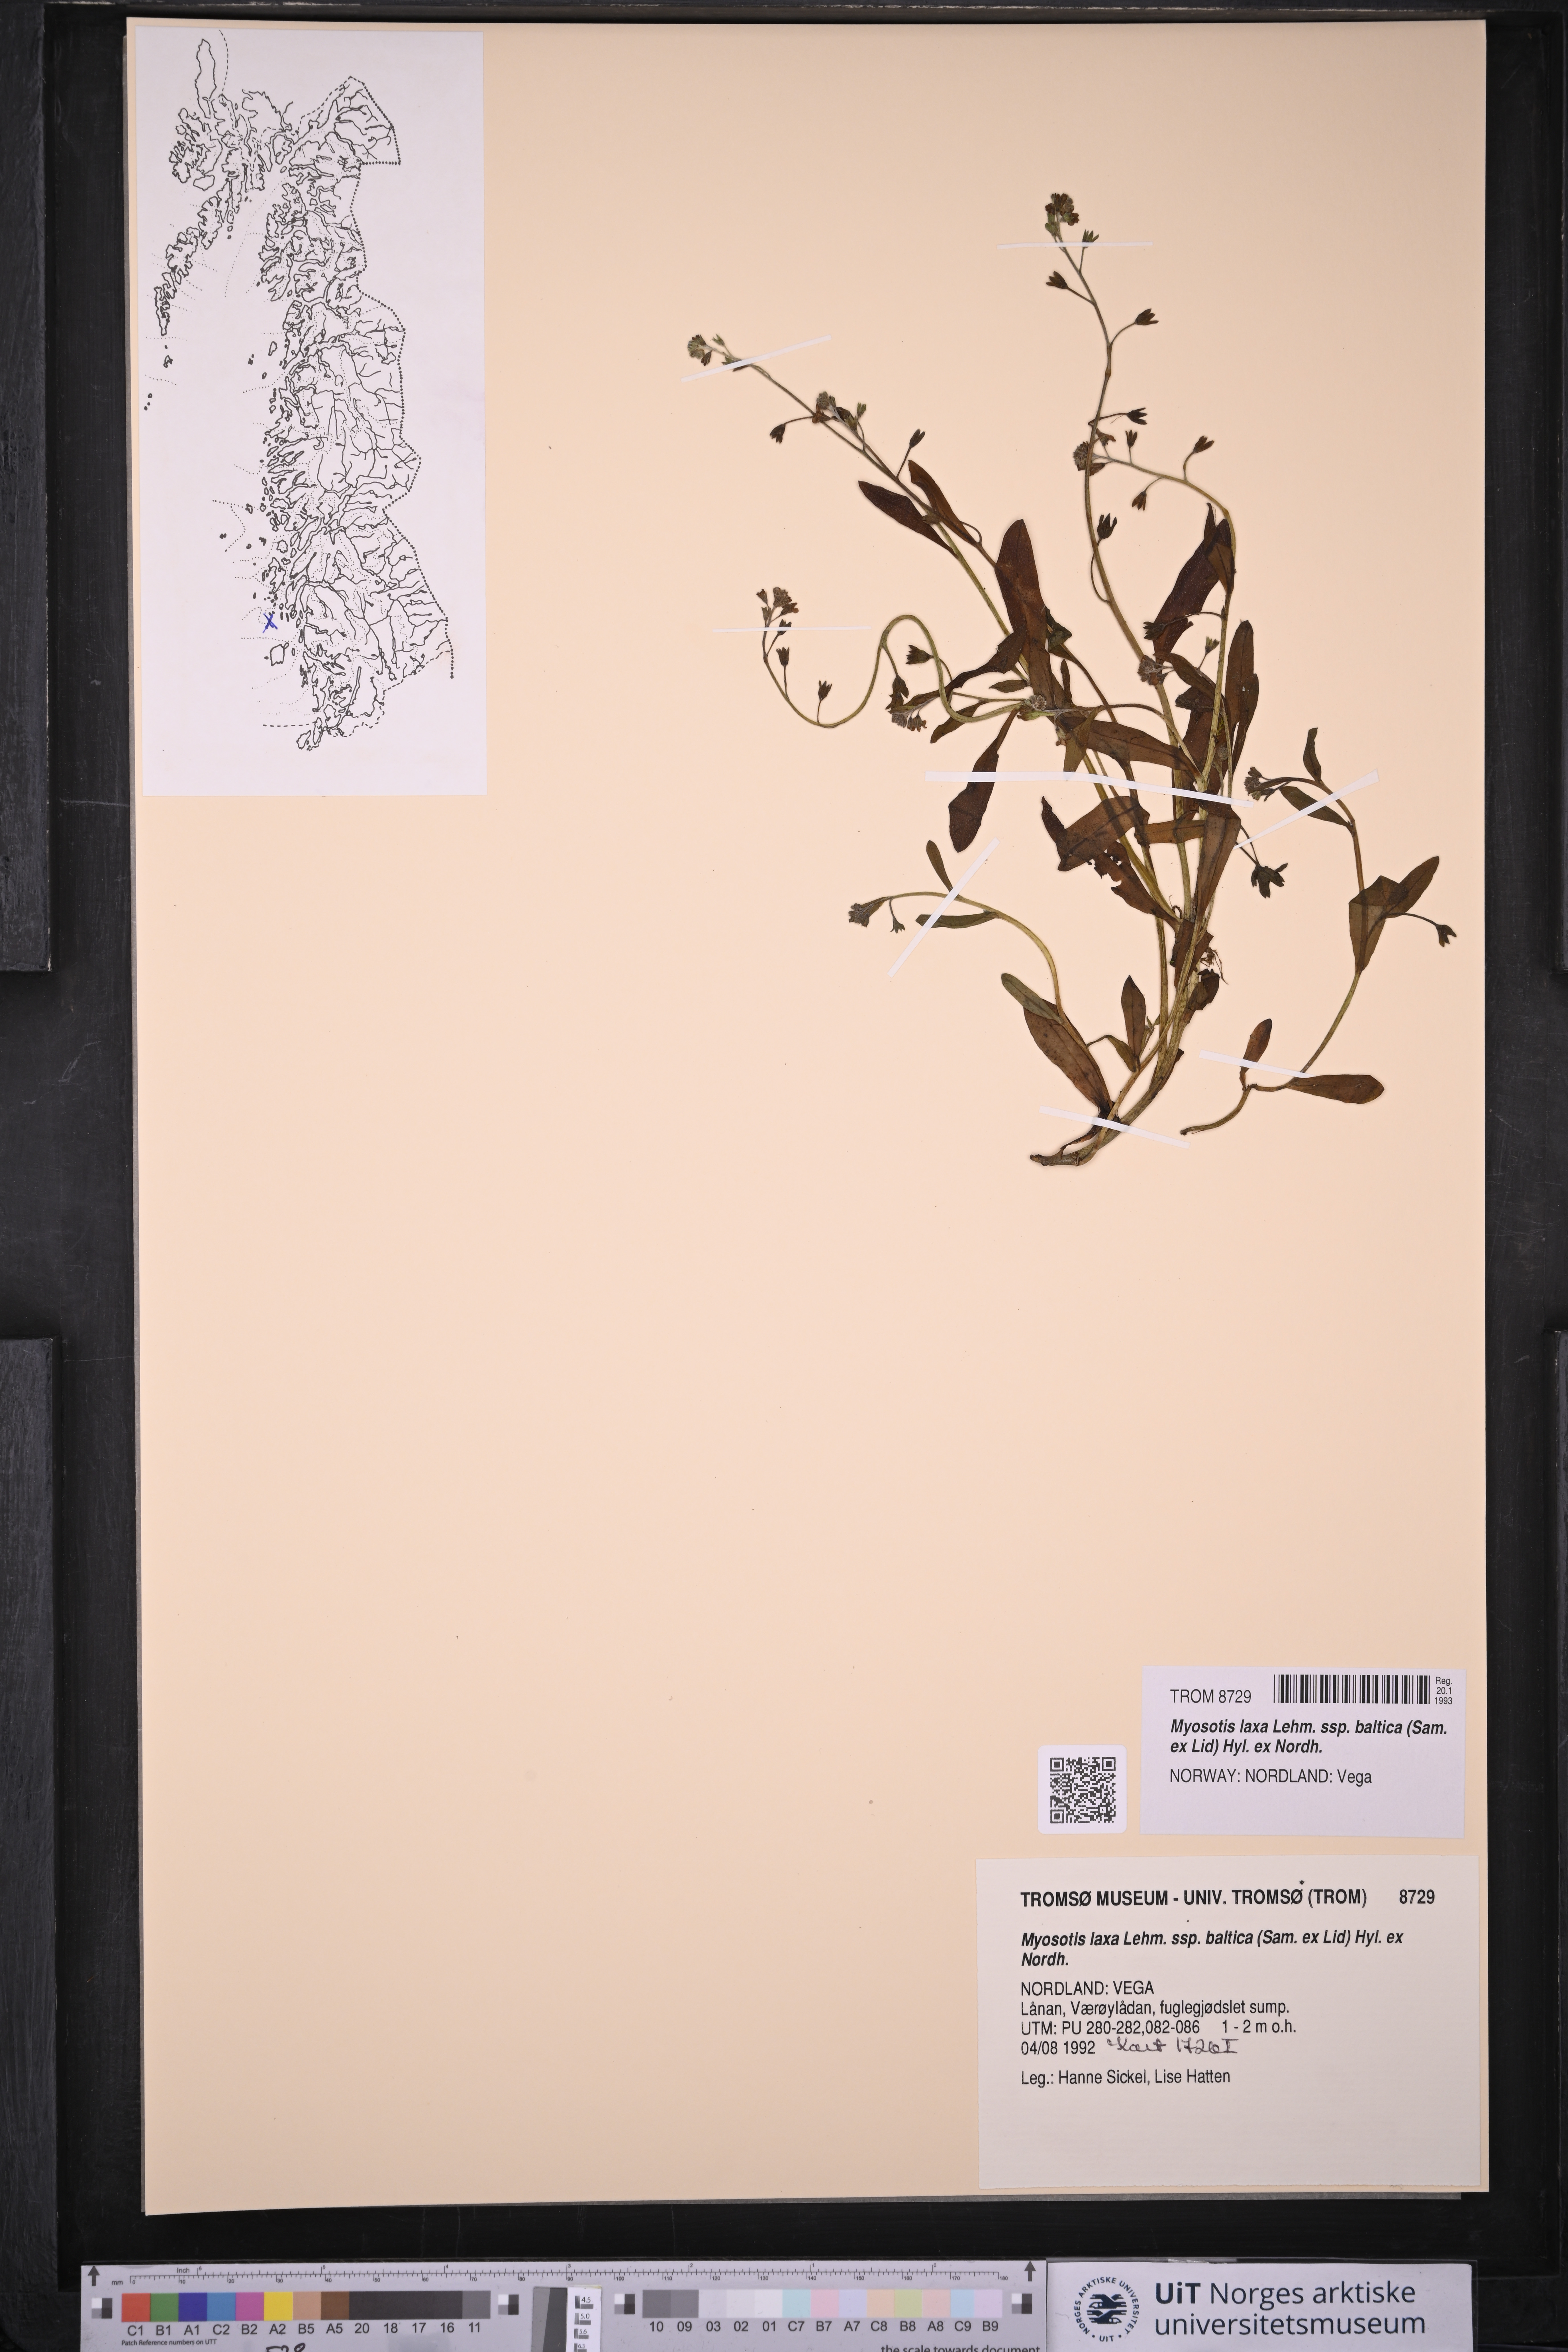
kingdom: Plantae
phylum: Tracheophyta
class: Magnoliopsida
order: Boraginales
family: Boraginaceae
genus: Myosotis
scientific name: Myosotis laxa
